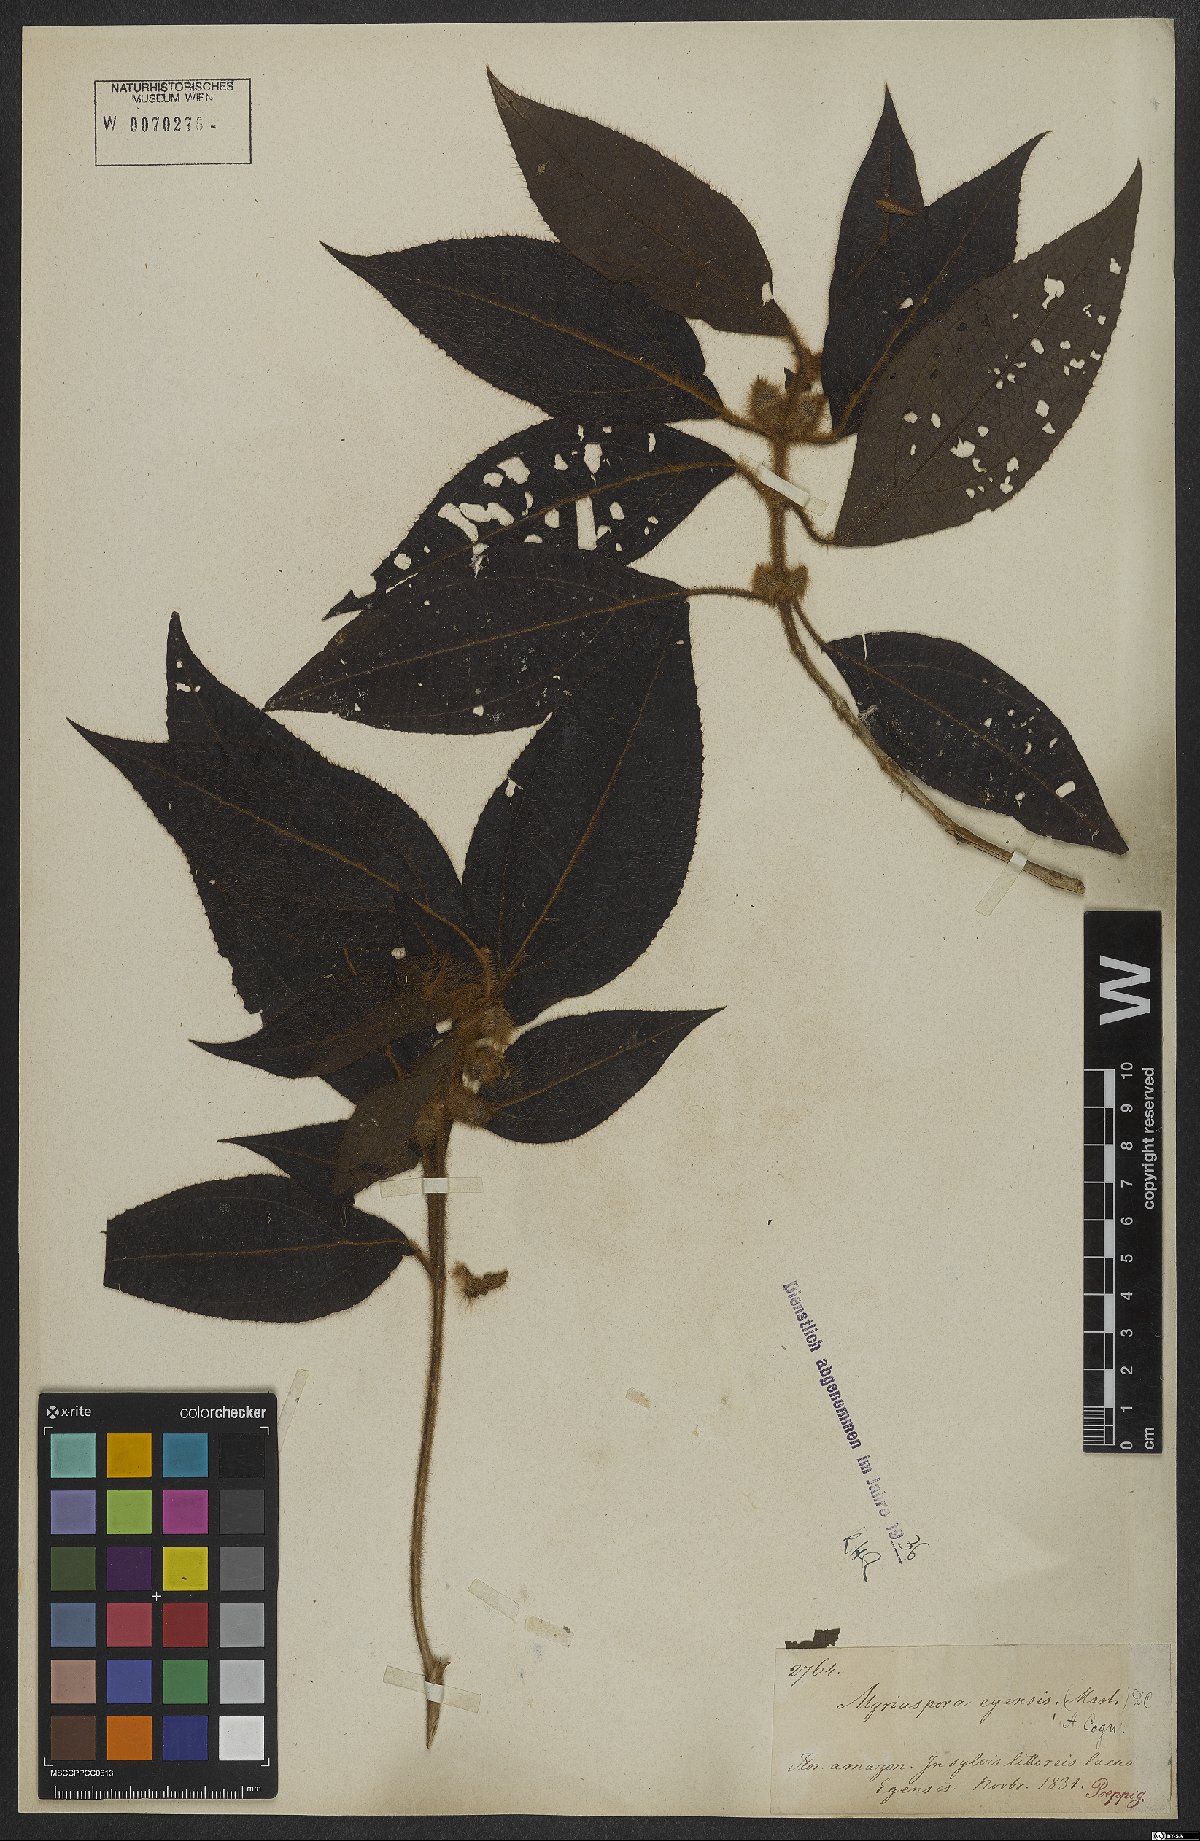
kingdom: Plantae
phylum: Tracheophyta
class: Magnoliopsida
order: Myrtales
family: Melastomataceae
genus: Bellucia
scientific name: Bellucia egensis
